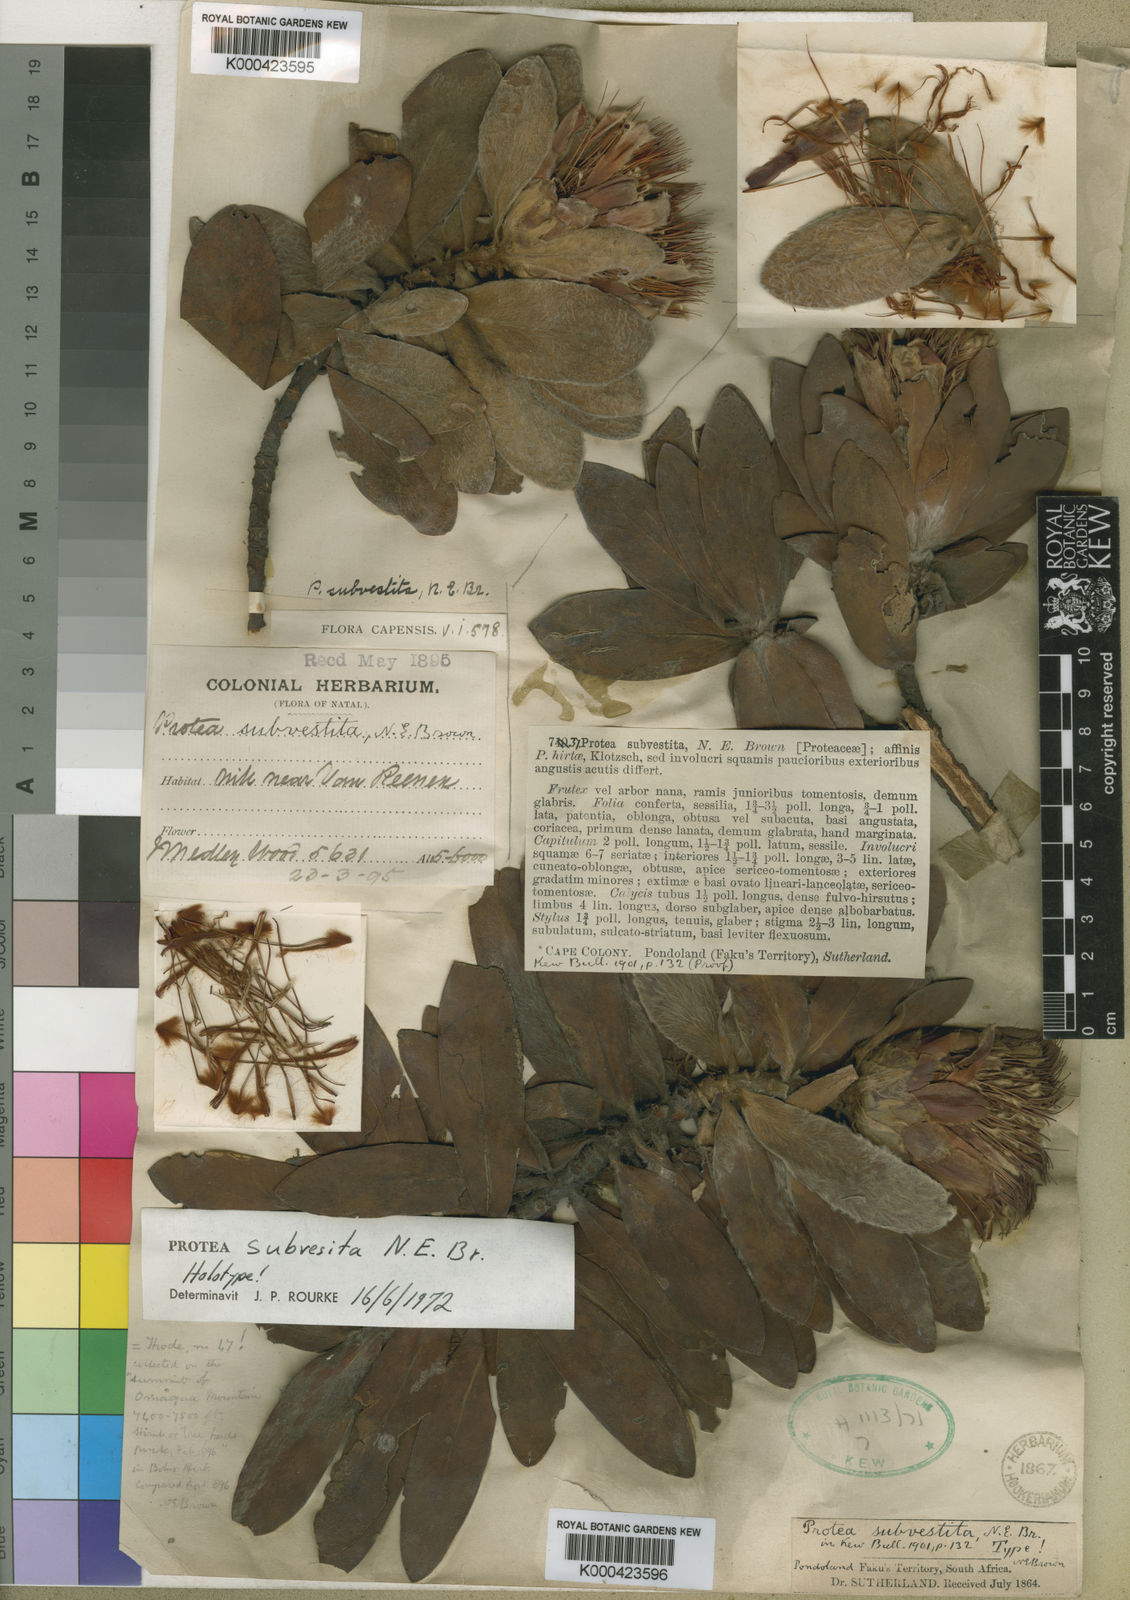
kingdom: Plantae
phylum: Tracheophyta
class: Magnoliopsida
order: Proteales
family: Proteaceae
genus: Protea
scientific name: Protea subvestita
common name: Lip-flower sugarbush
